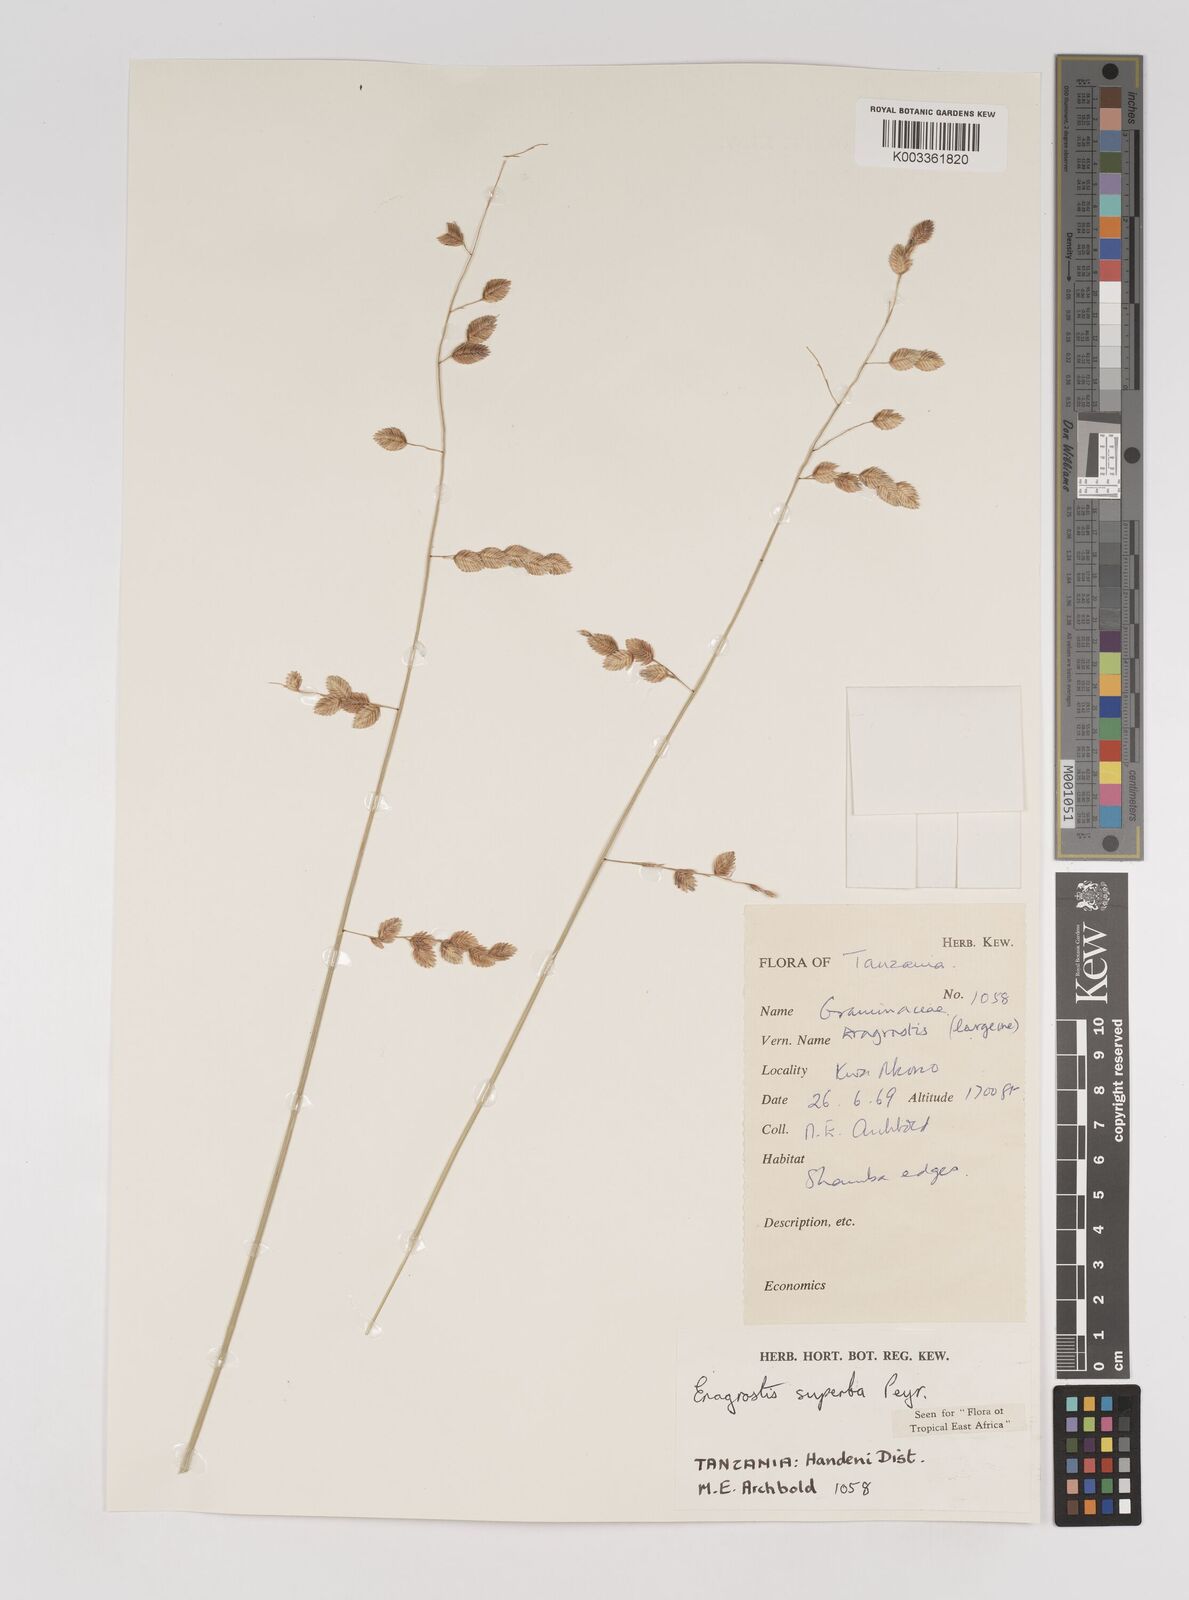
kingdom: Plantae
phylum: Tracheophyta
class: Liliopsida
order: Poales
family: Poaceae
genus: Eragrostis
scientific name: Eragrostis superba
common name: Wilman lovegrass
